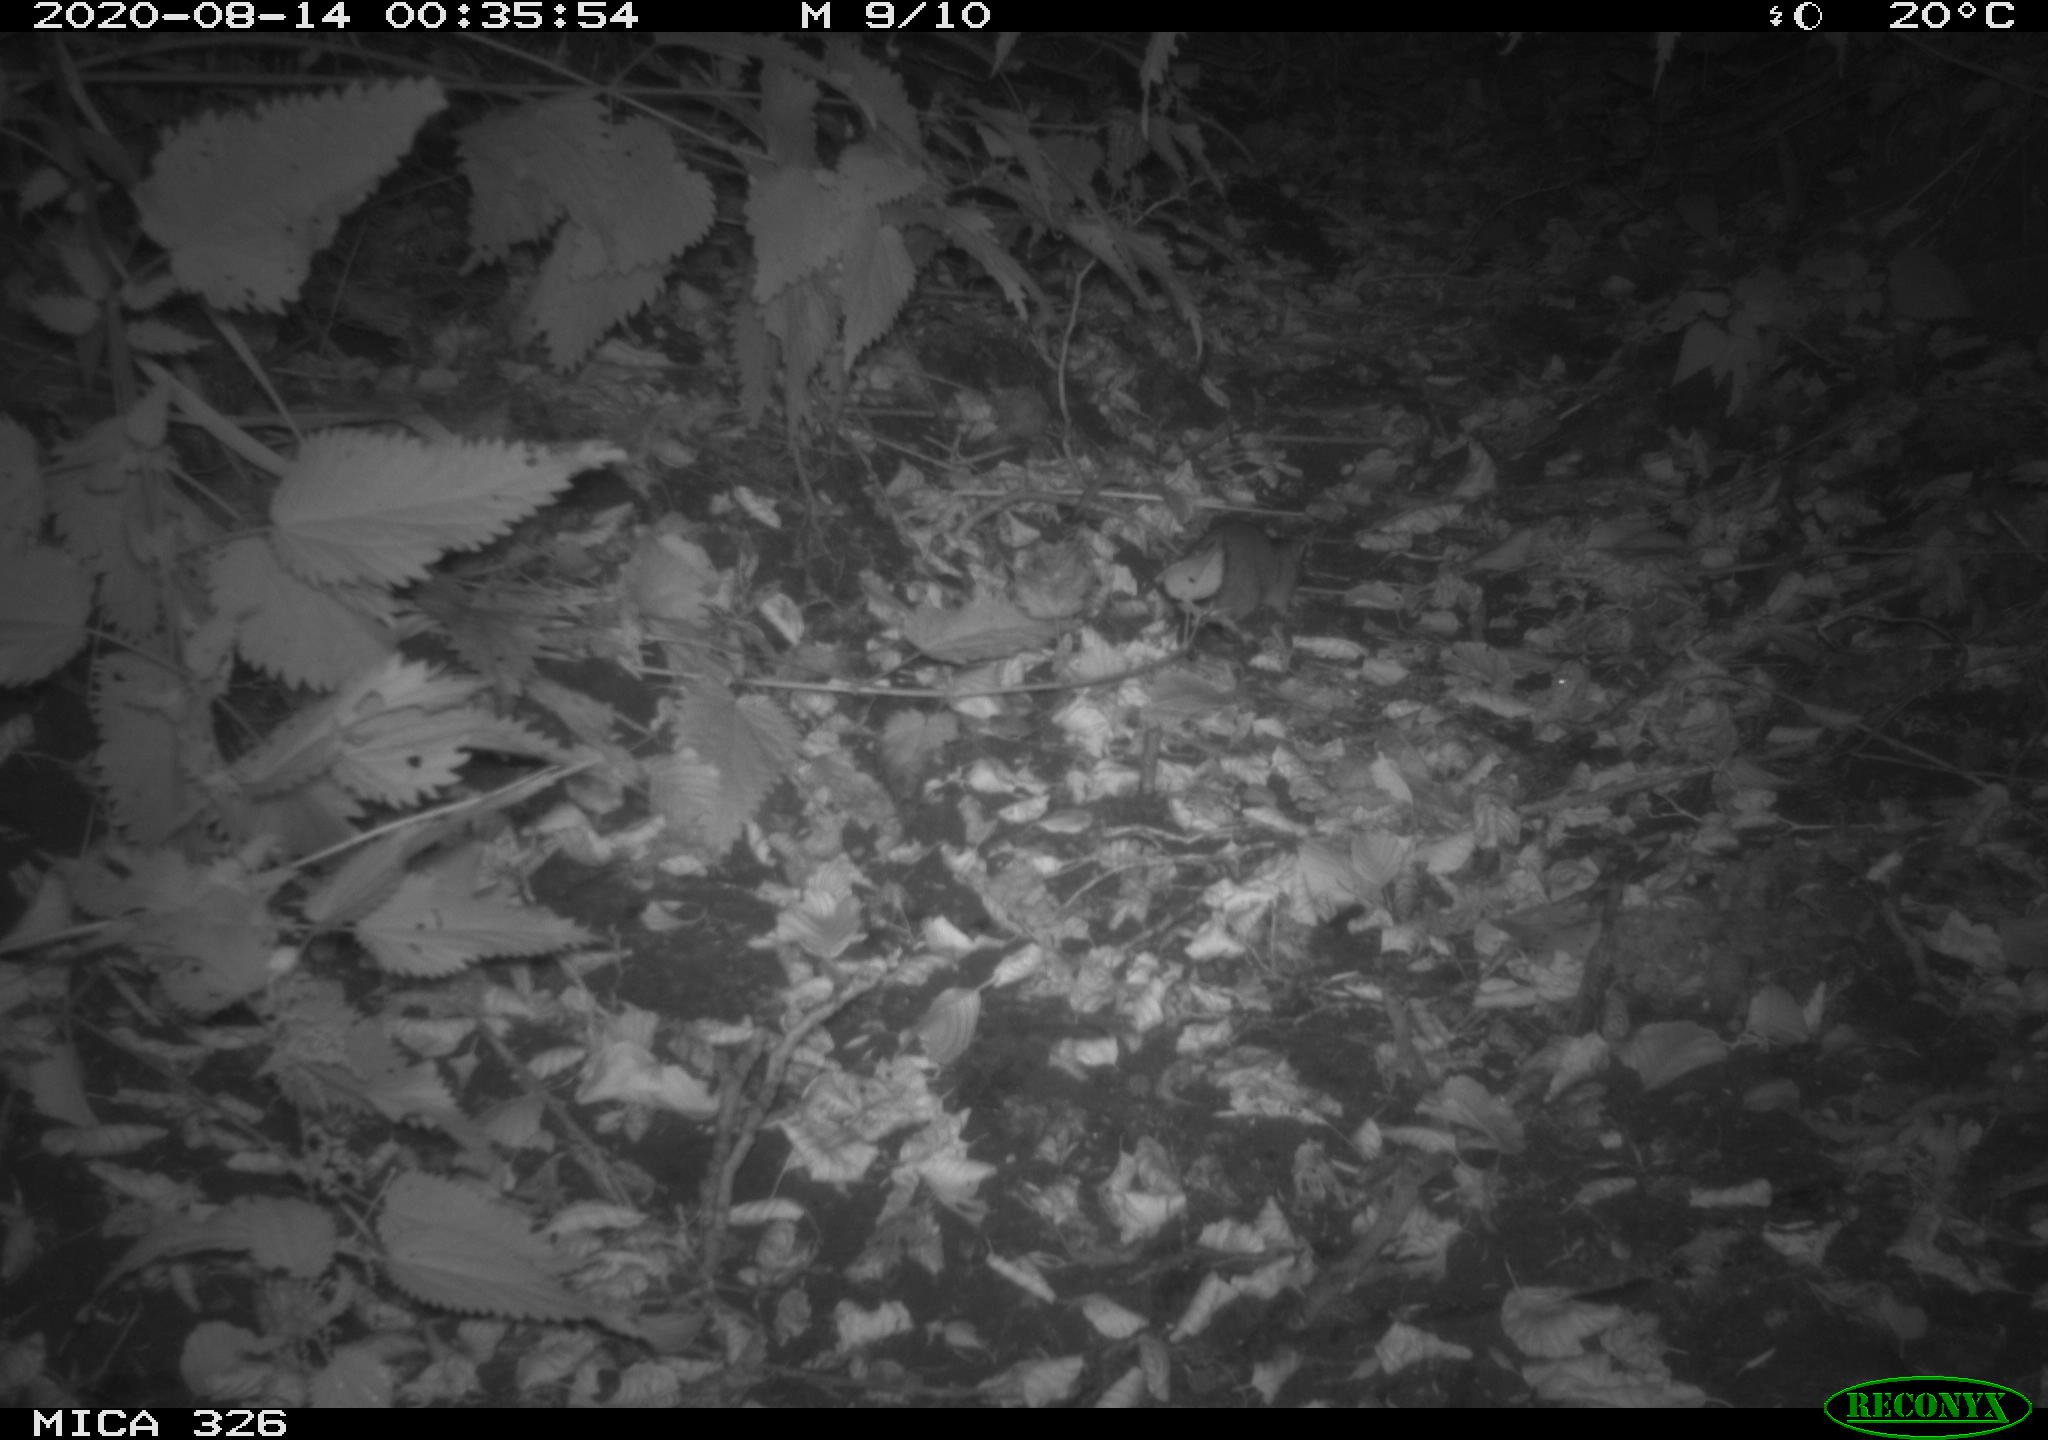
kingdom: Animalia
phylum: Chordata
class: Mammalia
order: Rodentia
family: Muridae
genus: Rattus
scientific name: Rattus norvegicus
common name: Brown rat
